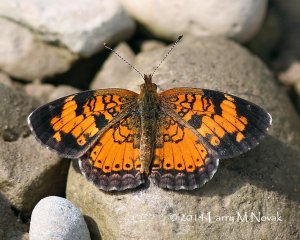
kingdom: Animalia
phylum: Arthropoda
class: Insecta
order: Lepidoptera
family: Nymphalidae
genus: Phyciodes
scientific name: Phyciodes tharos
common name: Northern Crescent
